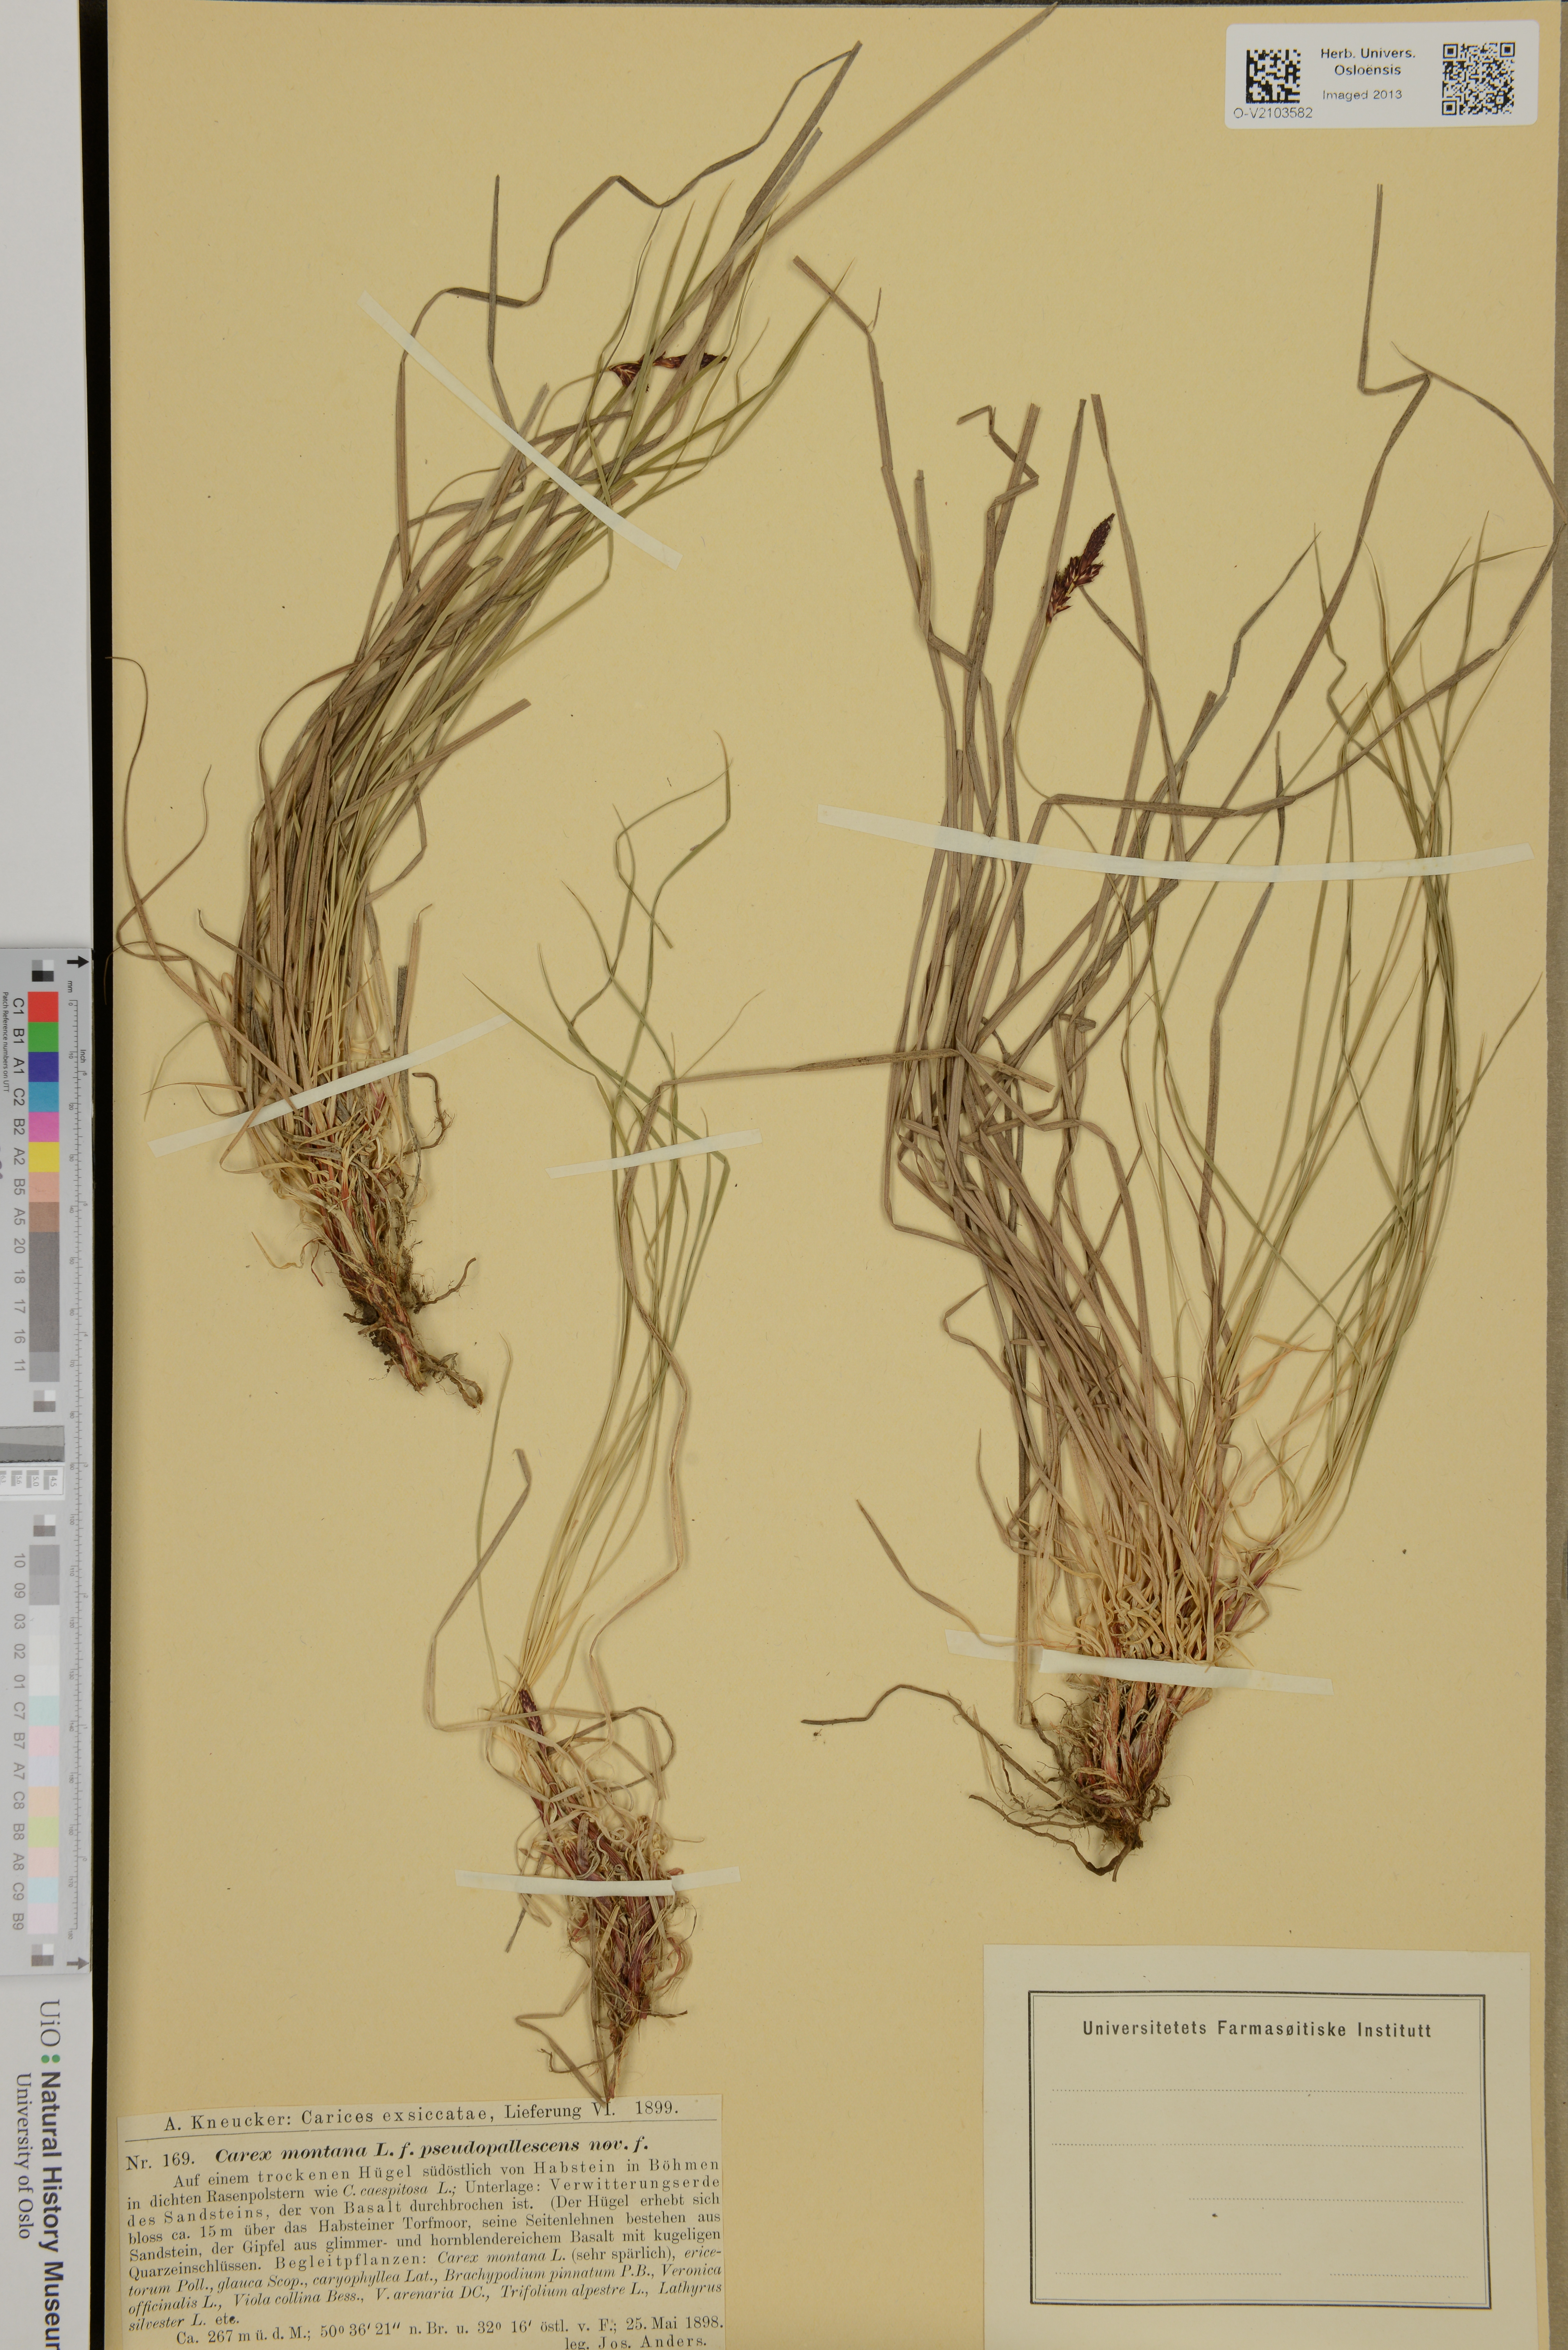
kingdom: Plantae
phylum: Tracheophyta
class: Liliopsida
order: Poales
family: Cyperaceae
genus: Carex
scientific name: Carex montana
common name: Soft-leaved sedge
